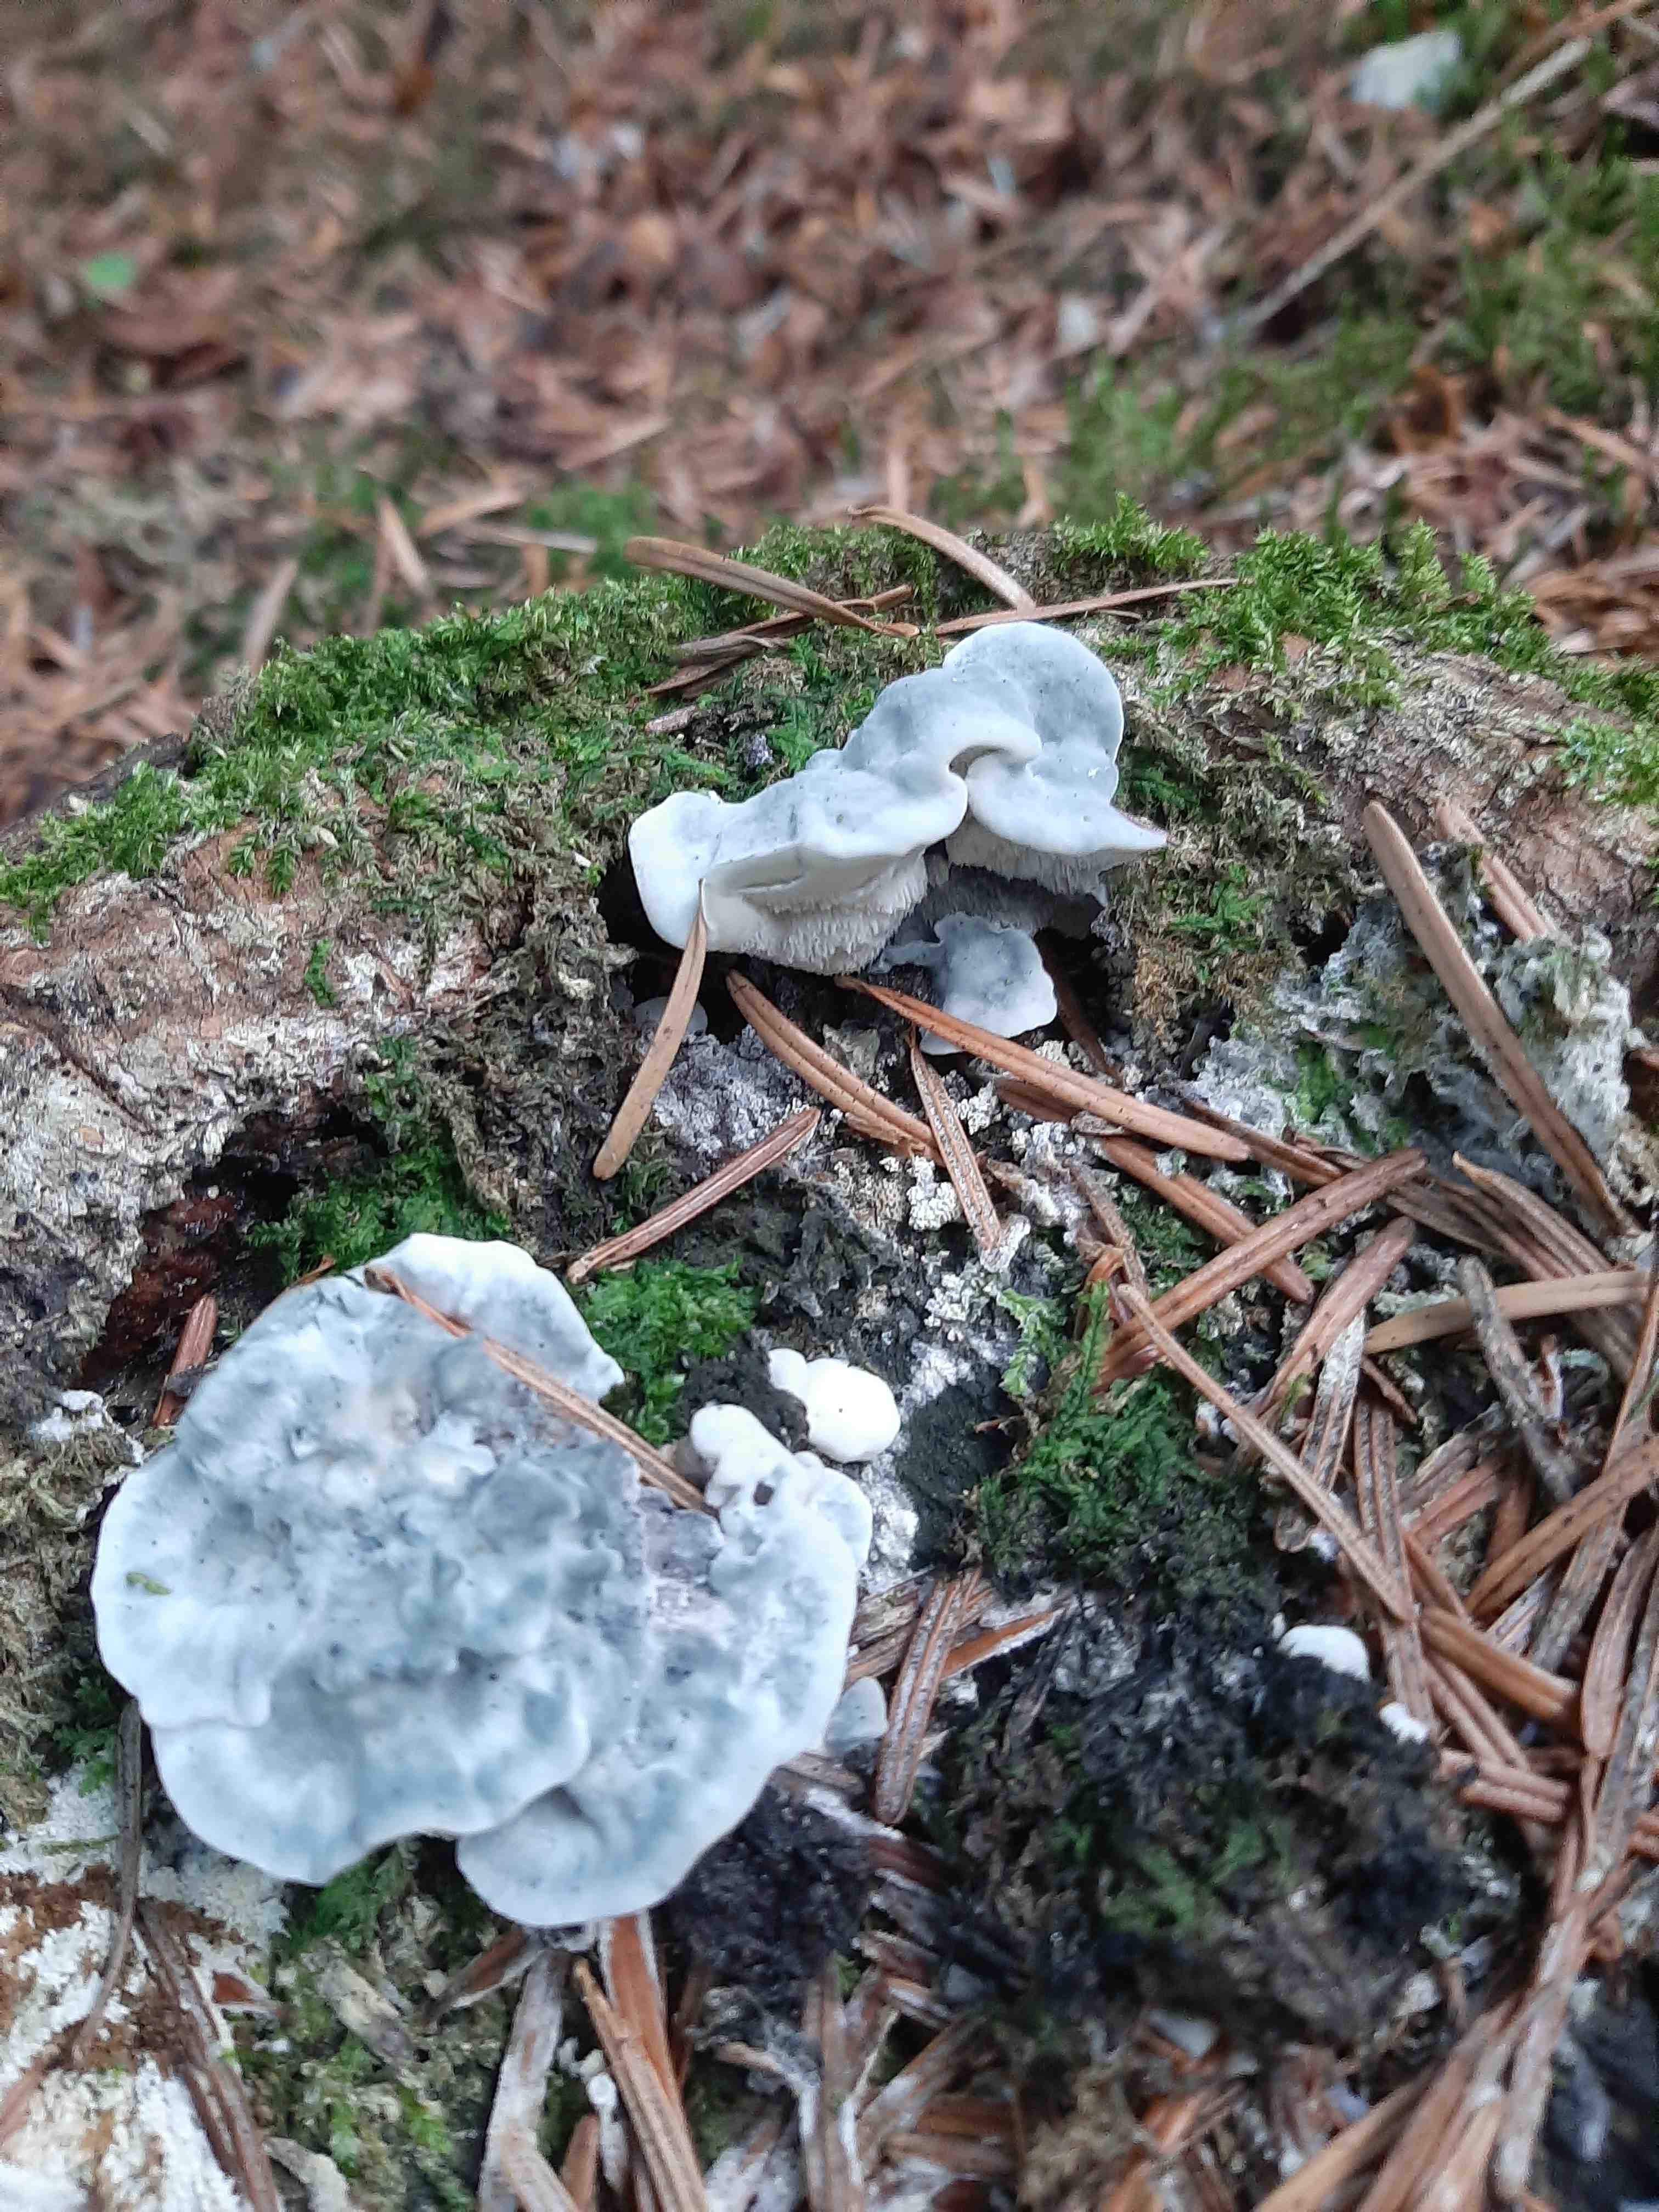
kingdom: Fungi
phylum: Basidiomycota
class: Agaricomycetes
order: Polyporales
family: Polyporaceae
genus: Cyanosporus
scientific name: Cyanosporus caesius
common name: blålig kødporesvamp
